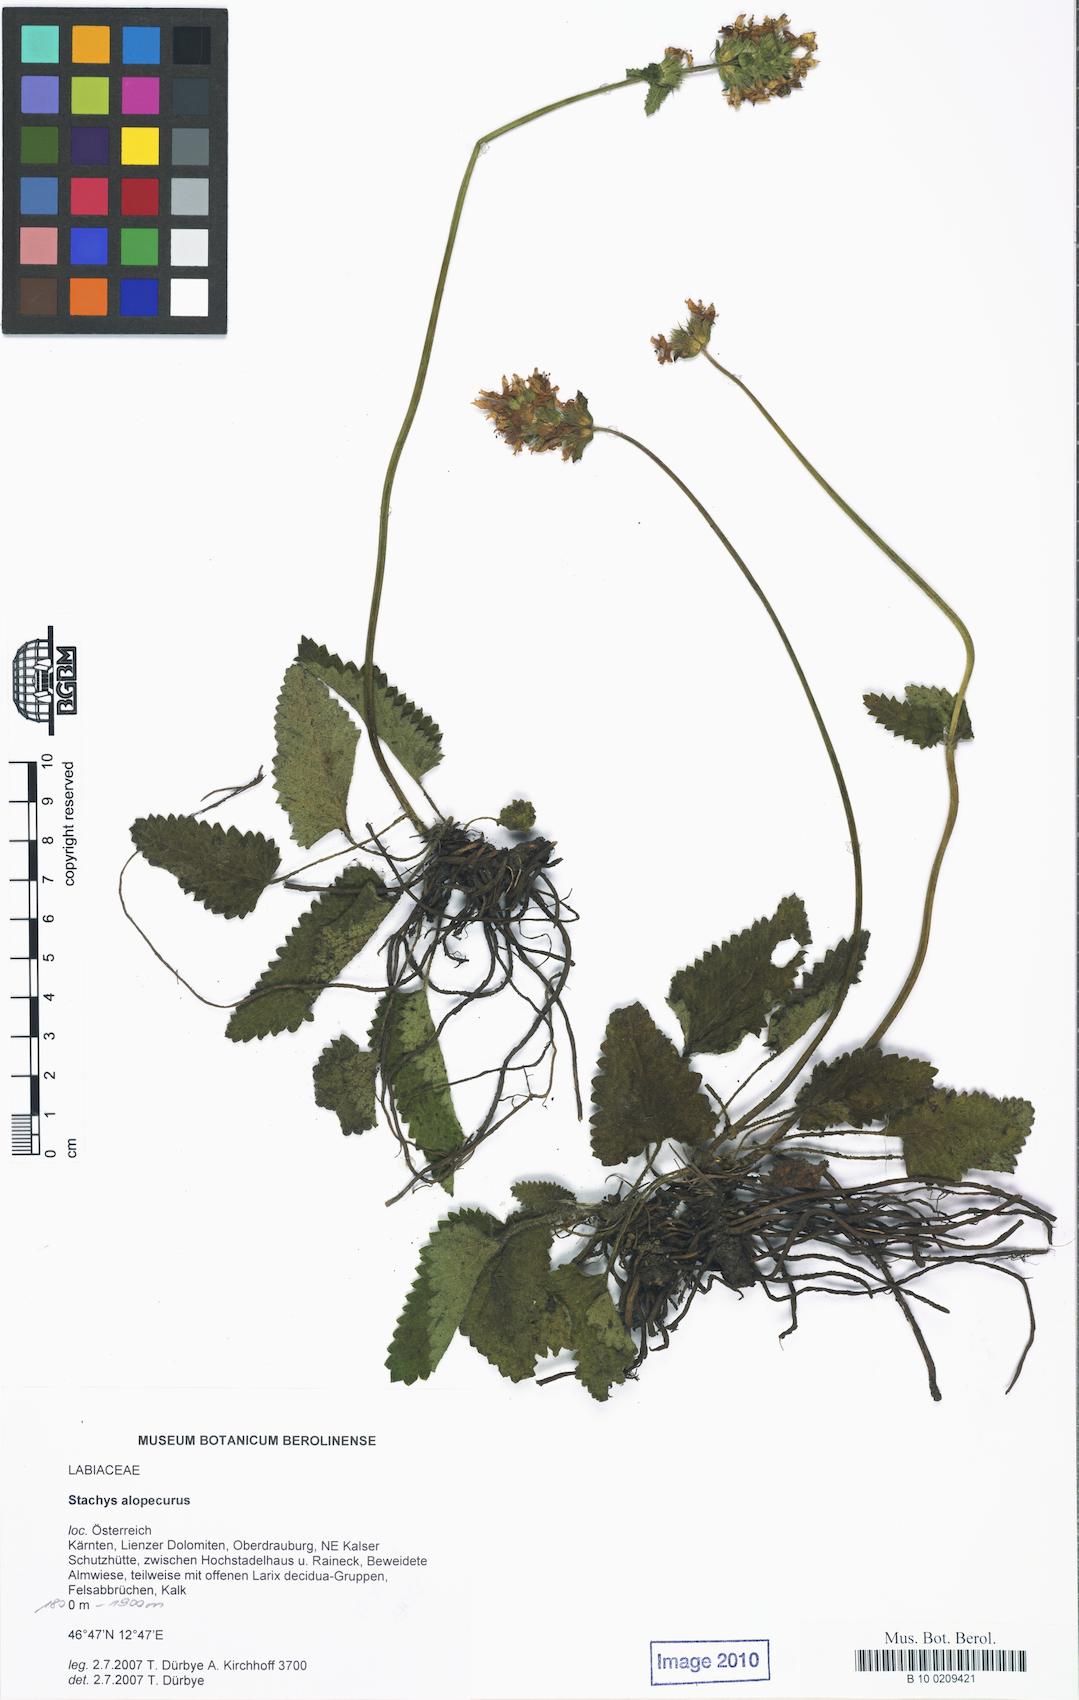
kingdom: Plantae
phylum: Tracheophyta
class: Magnoliopsida
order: Lamiales
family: Lamiaceae
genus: Betonica
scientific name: Betonica alopecuros
